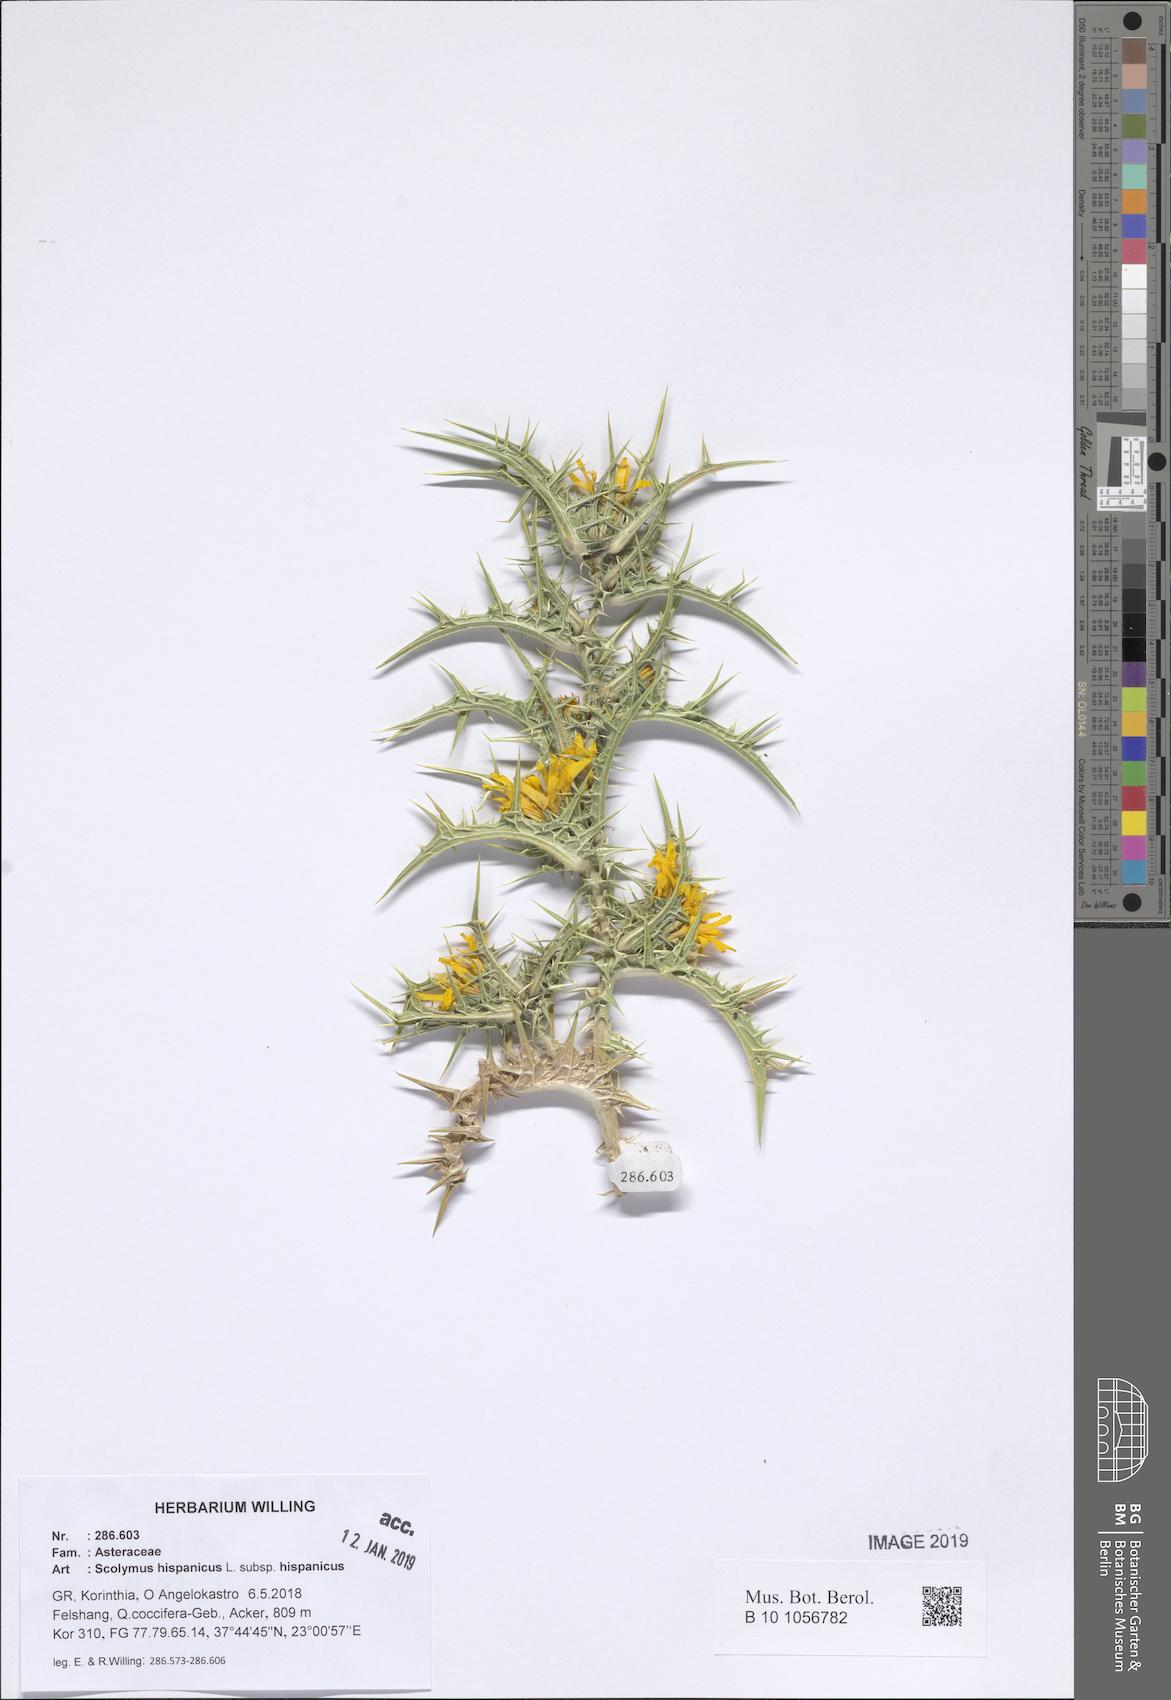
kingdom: Plantae
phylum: Tracheophyta
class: Magnoliopsida
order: Asterales
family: Asteraceae
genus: Scolymus
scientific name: Scolymus hispanicus
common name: Golden thistle
